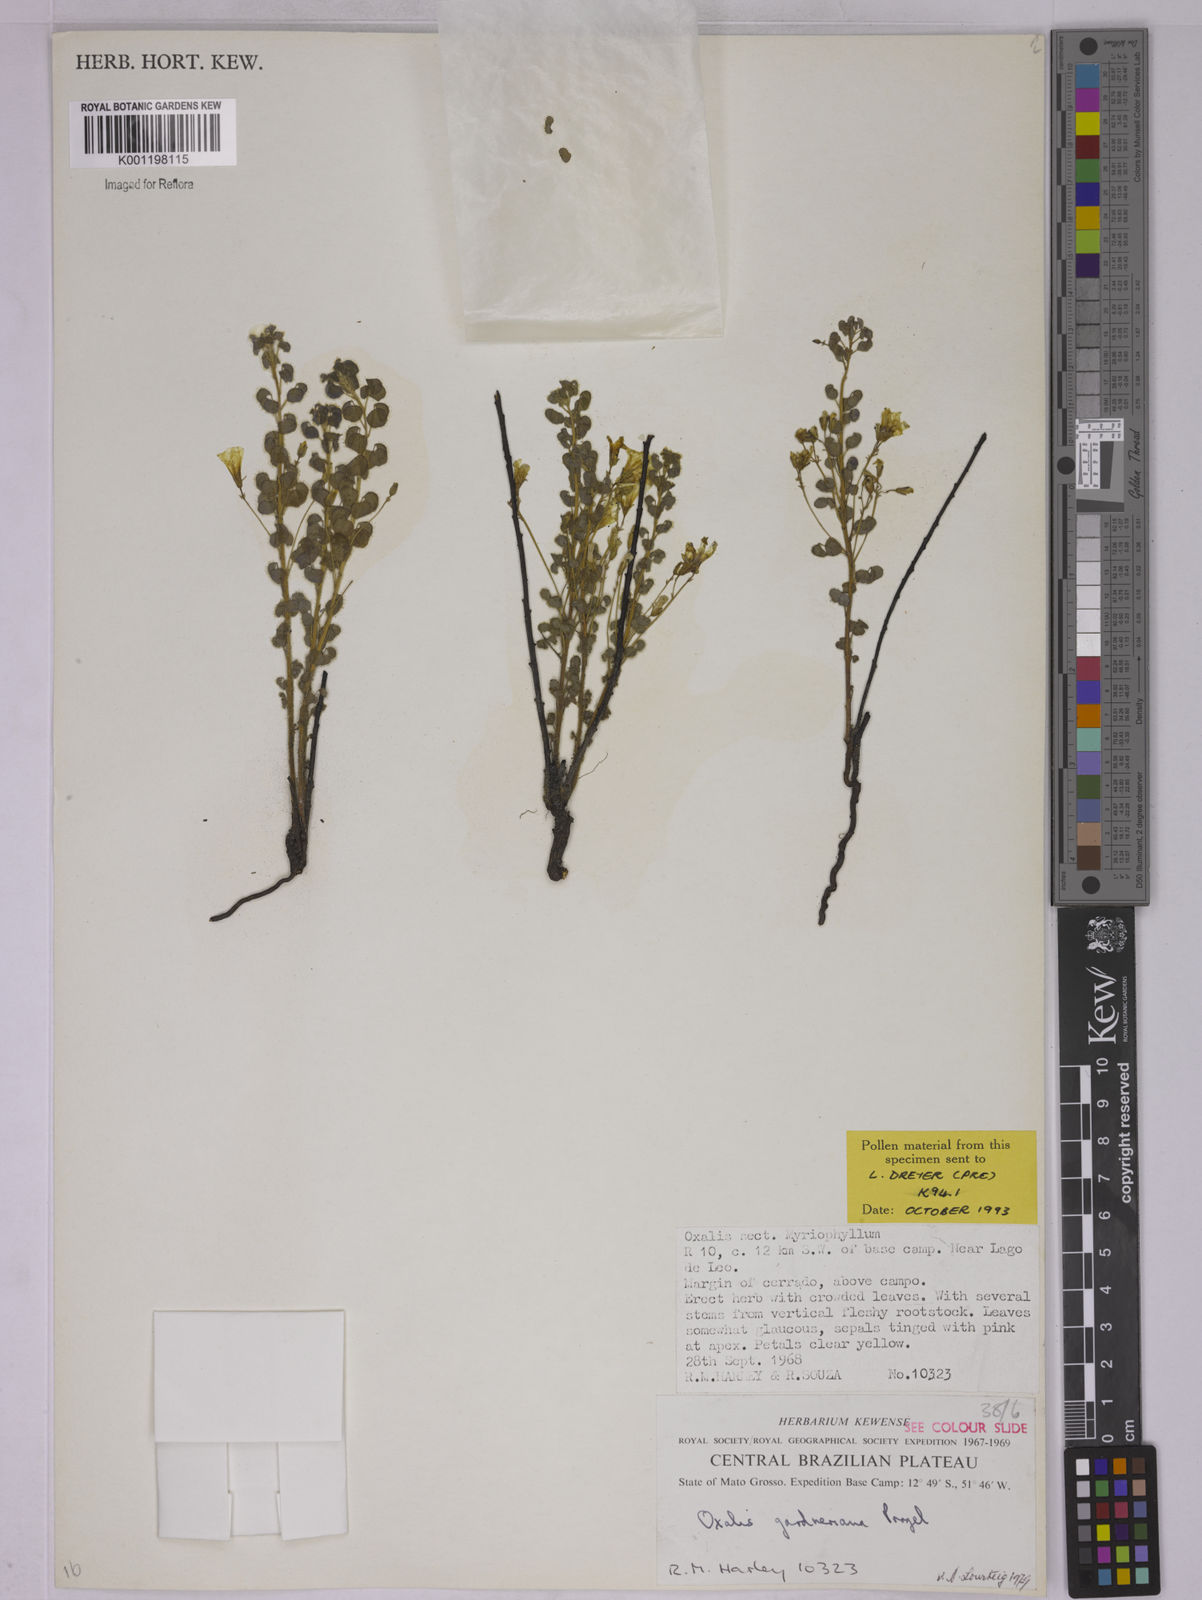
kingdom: Plantae
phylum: Tracheophyta
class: Magnoliopsida
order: Oxalidales
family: Oxalidaceae
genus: Oxalis
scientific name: Oxalis gardneriana
